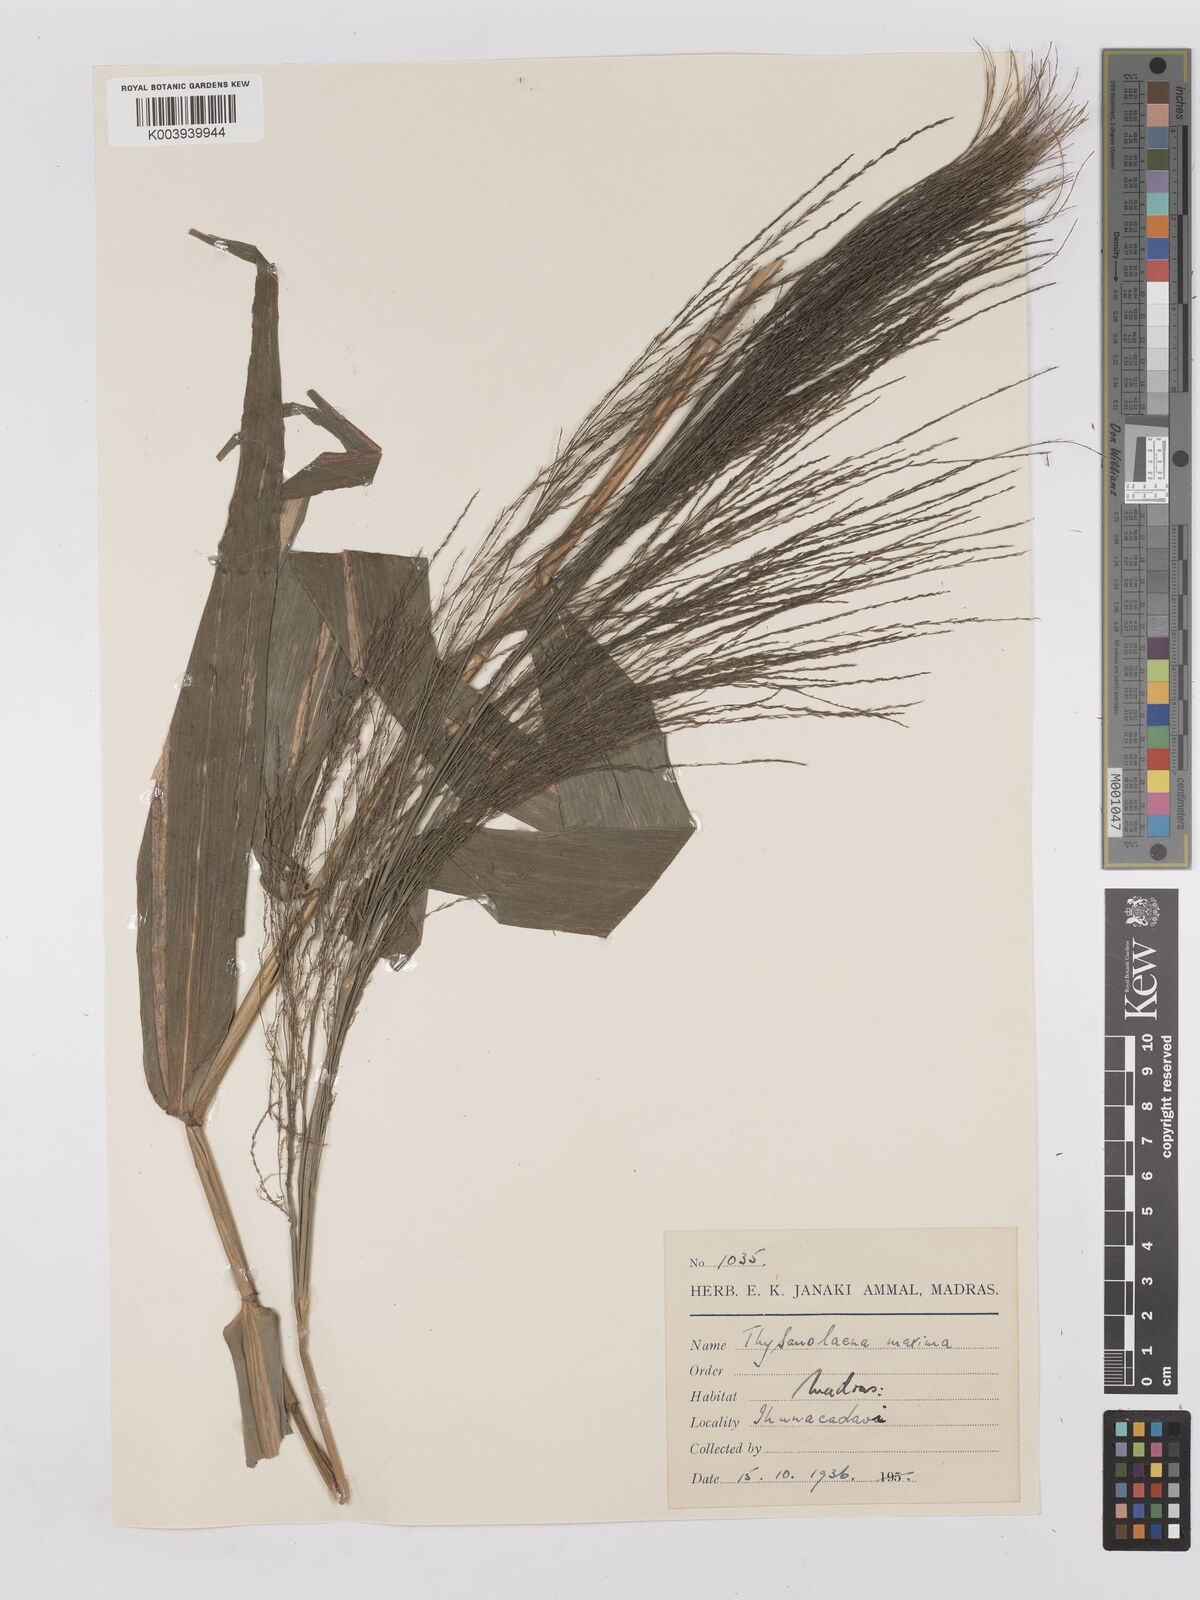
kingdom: Plantae
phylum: Tracheophyta
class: Liliopsida
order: Poales
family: Poaceae
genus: Thysanolaena
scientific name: Thysanolaena latifolia
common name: Tiger grass
